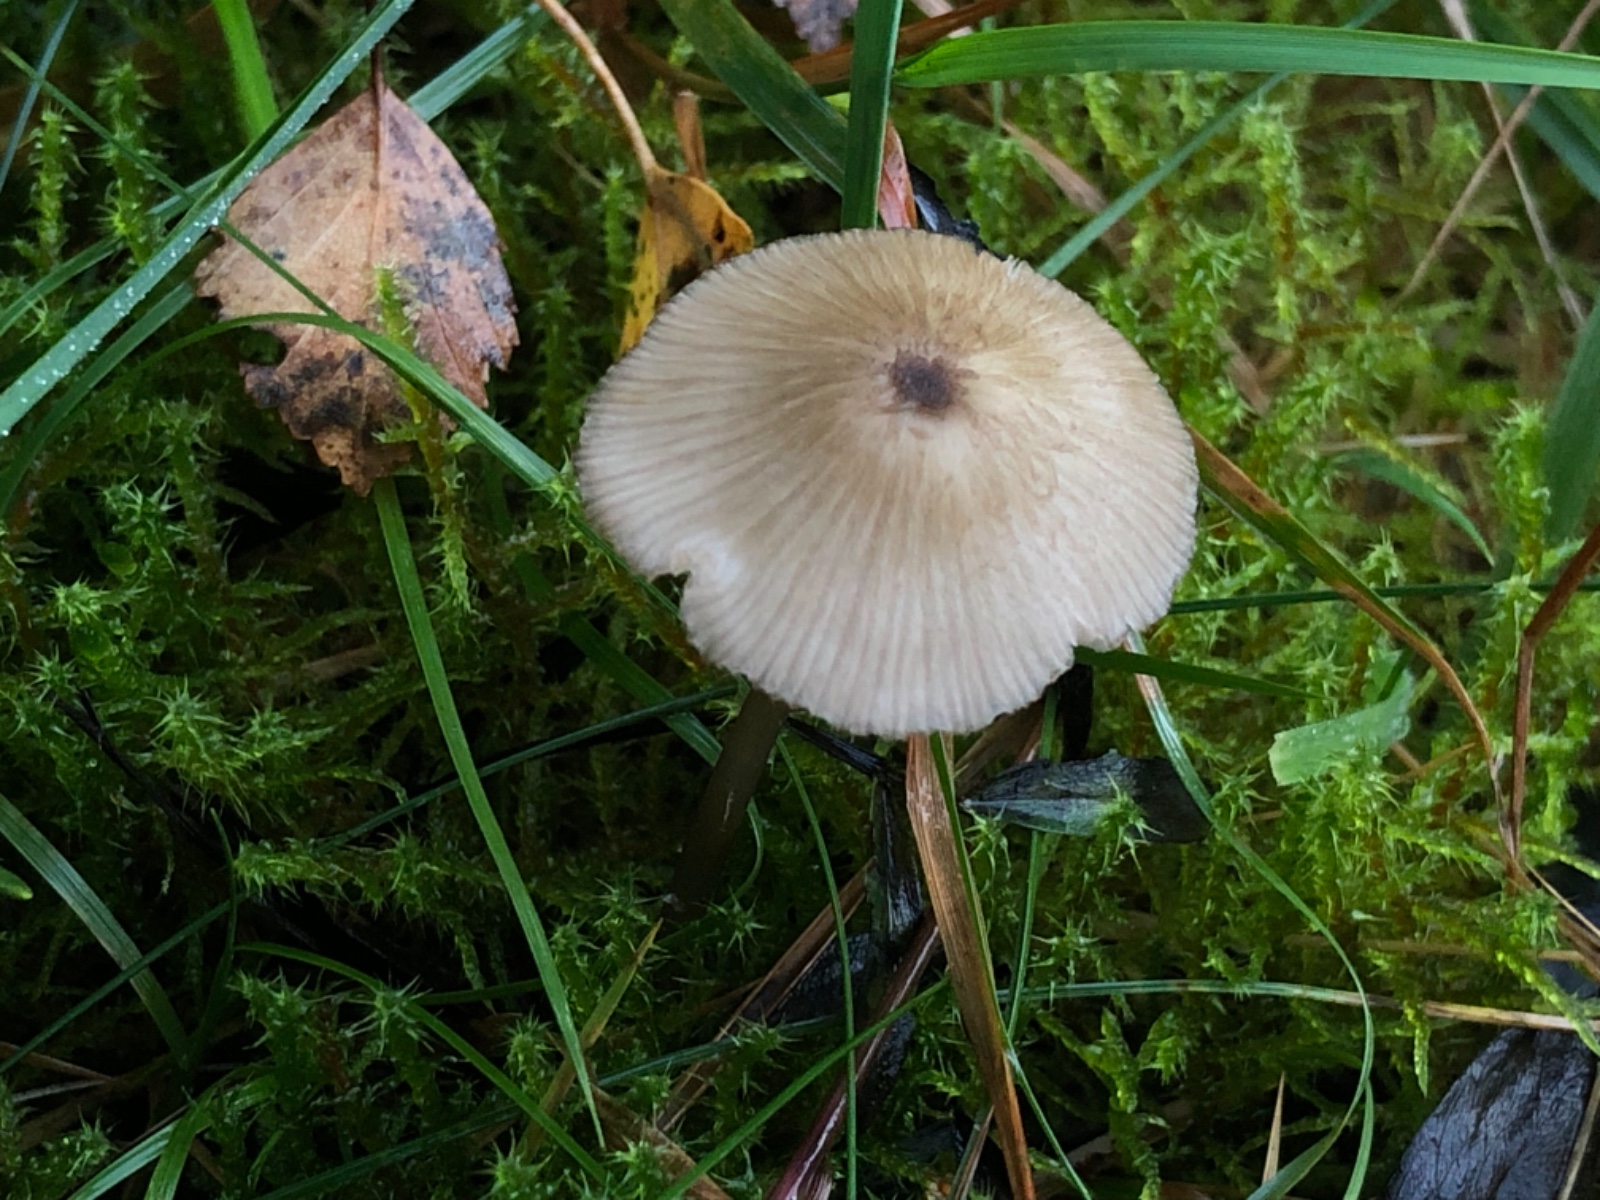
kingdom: Fungi
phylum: Basidiomycota
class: Agaricomycetes
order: Agaricales
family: Entolomataceae
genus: Entoloma
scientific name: Entoloma exile
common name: rødplettet rødblad
